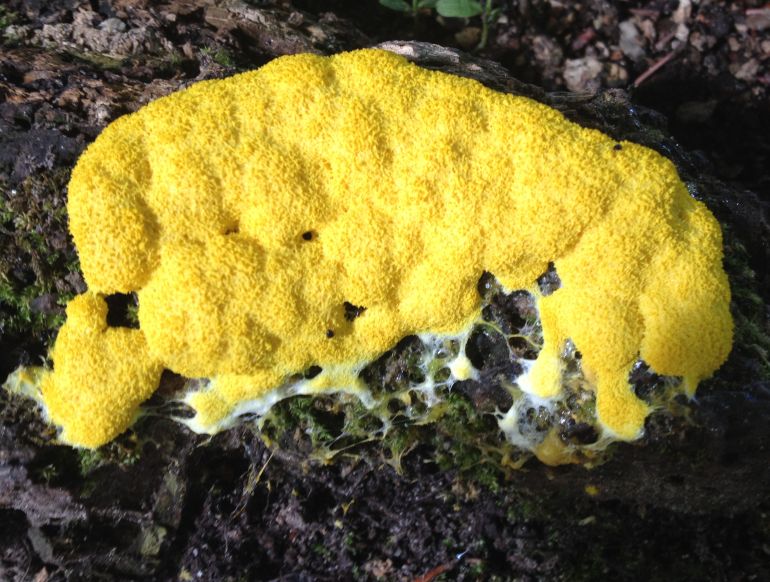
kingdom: Protozoa
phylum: Mycetozoa
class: Myxomycetes
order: Physarales
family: Physaraceae
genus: Fuligo
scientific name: Fuligo septica
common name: gul troldsmør
